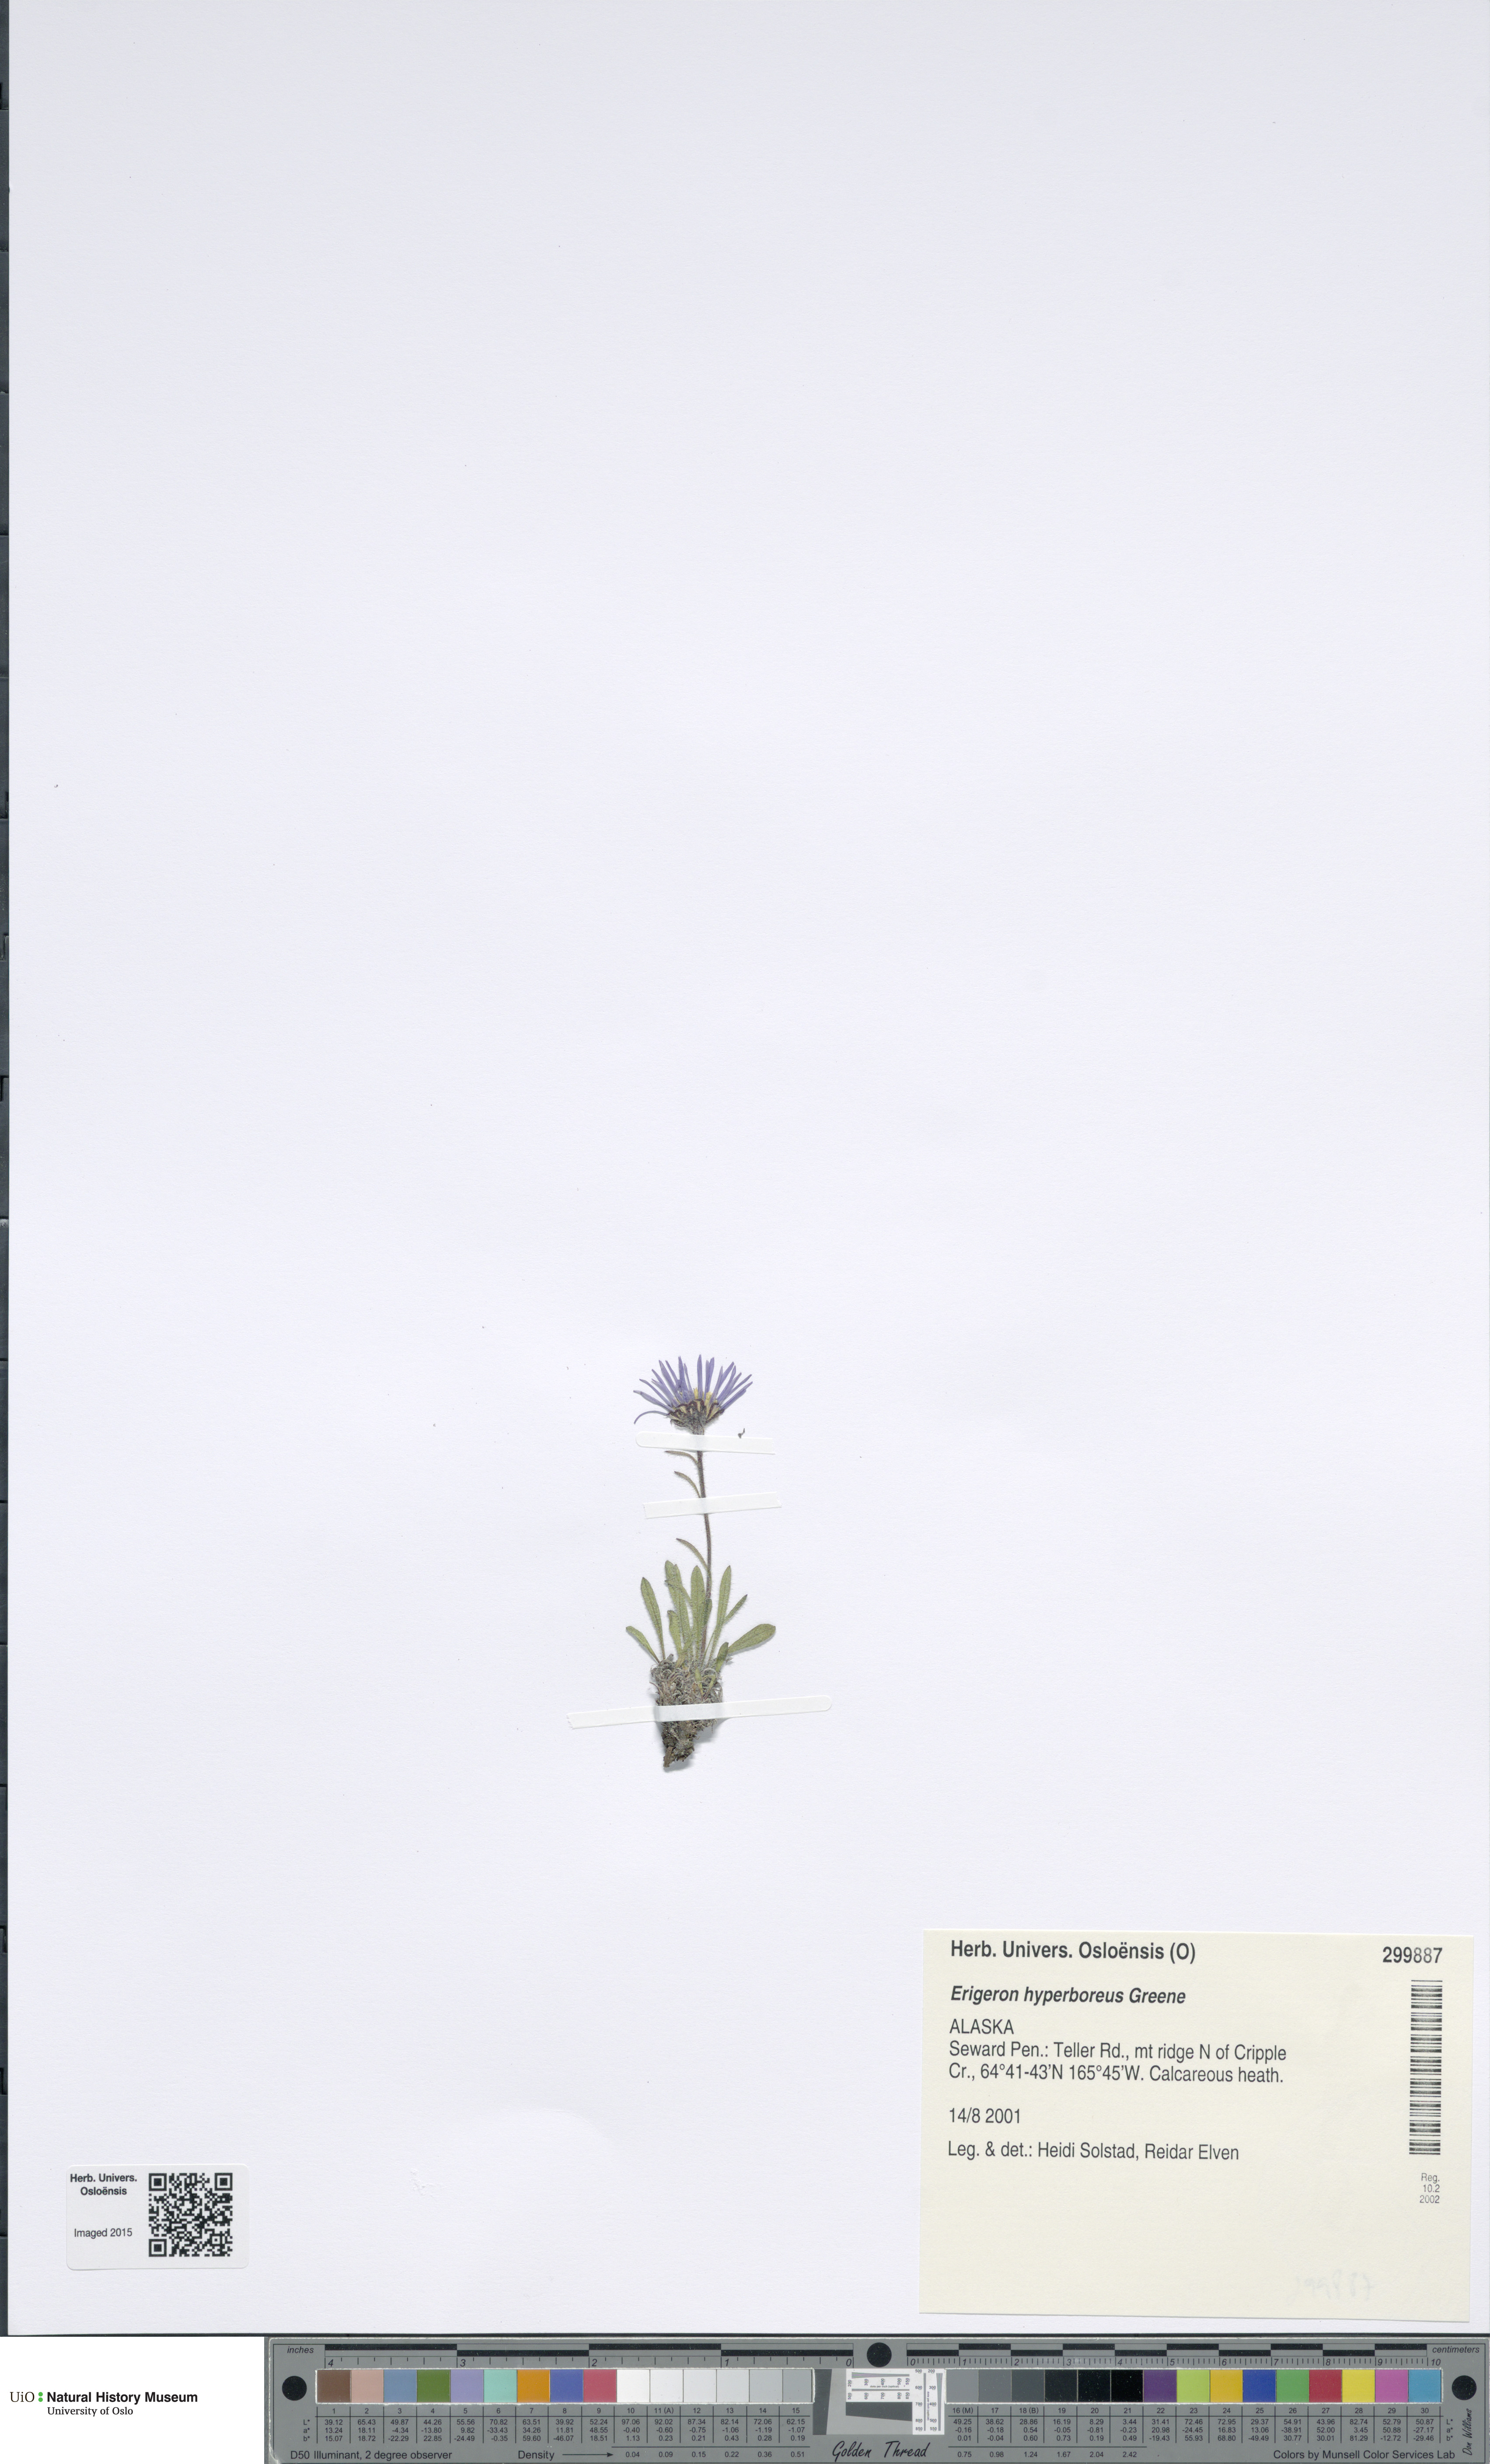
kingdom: Plantae
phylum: Tracheophyta
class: Magnoliopsida
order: Asterales
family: Asteraceae
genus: Erigeron
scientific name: Erigeron hyperboreus
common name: Tundra fleabane
